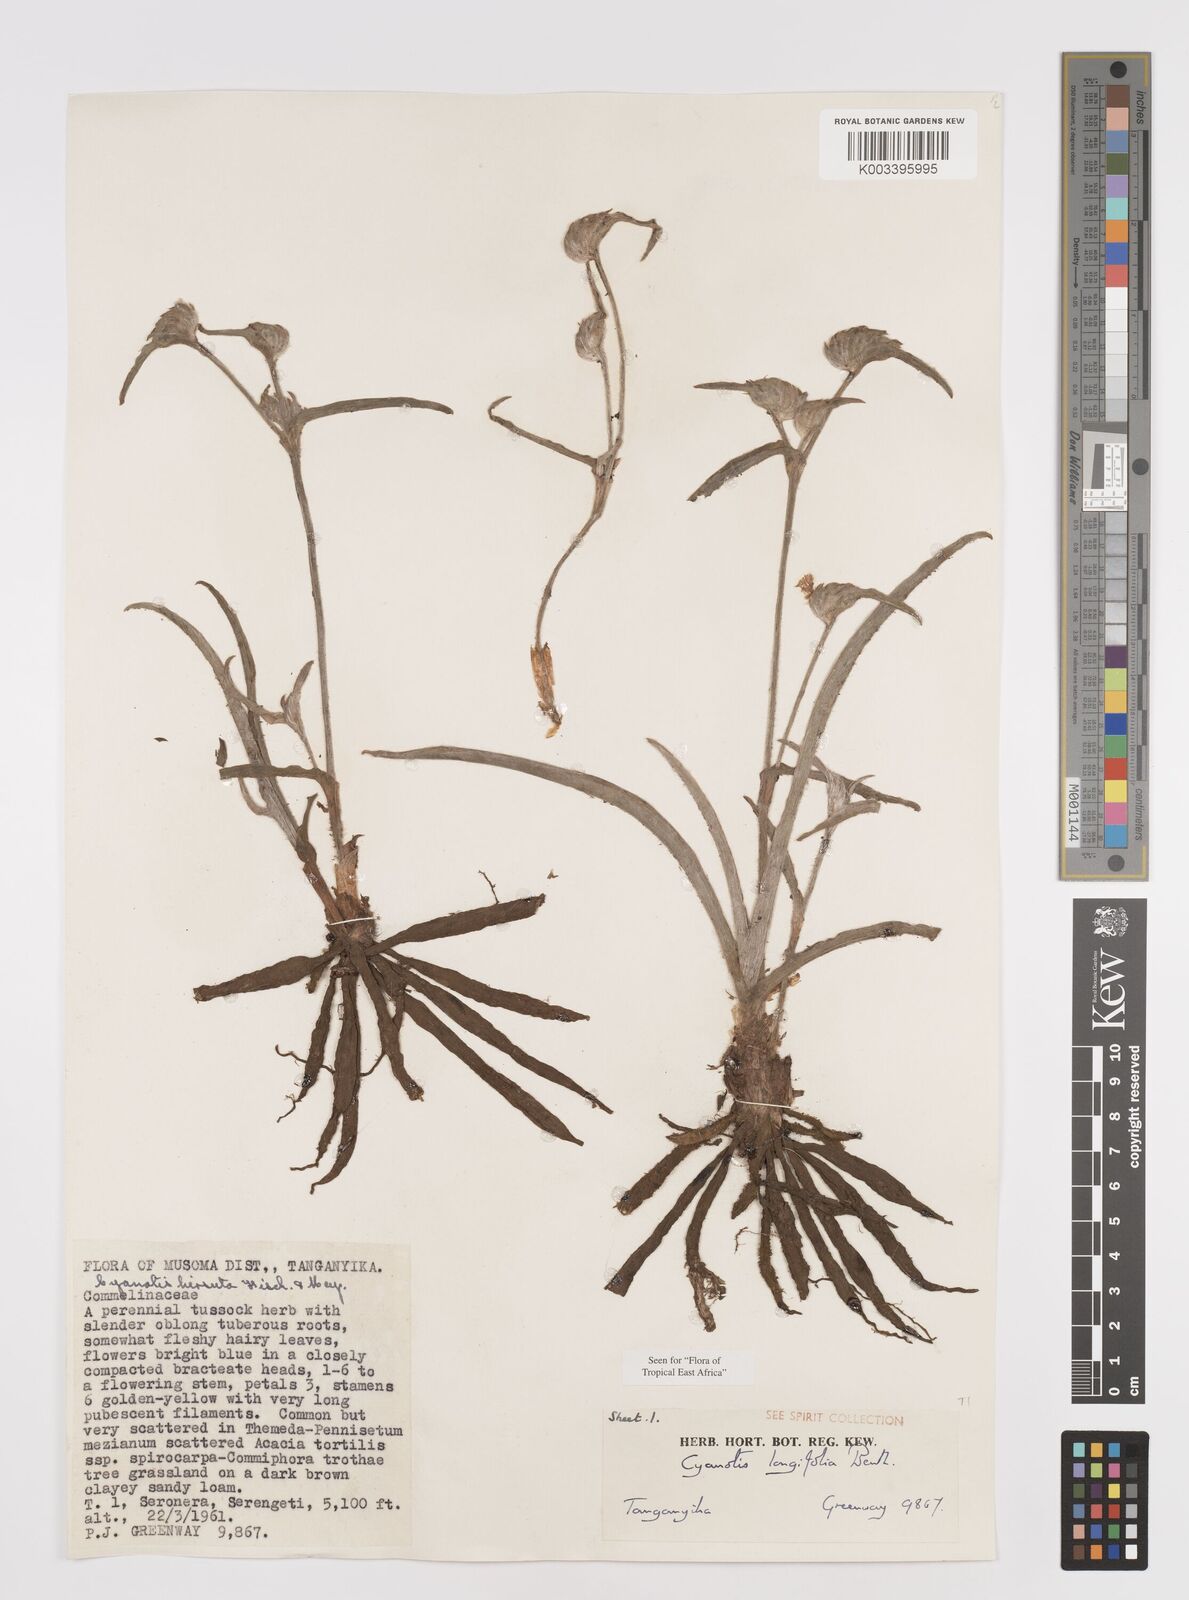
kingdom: Plantae
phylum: Tracheophyta
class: Liliopsida
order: Commelinales
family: Commelinaceae
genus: Cyanotis
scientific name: Cyanotis longifolia
